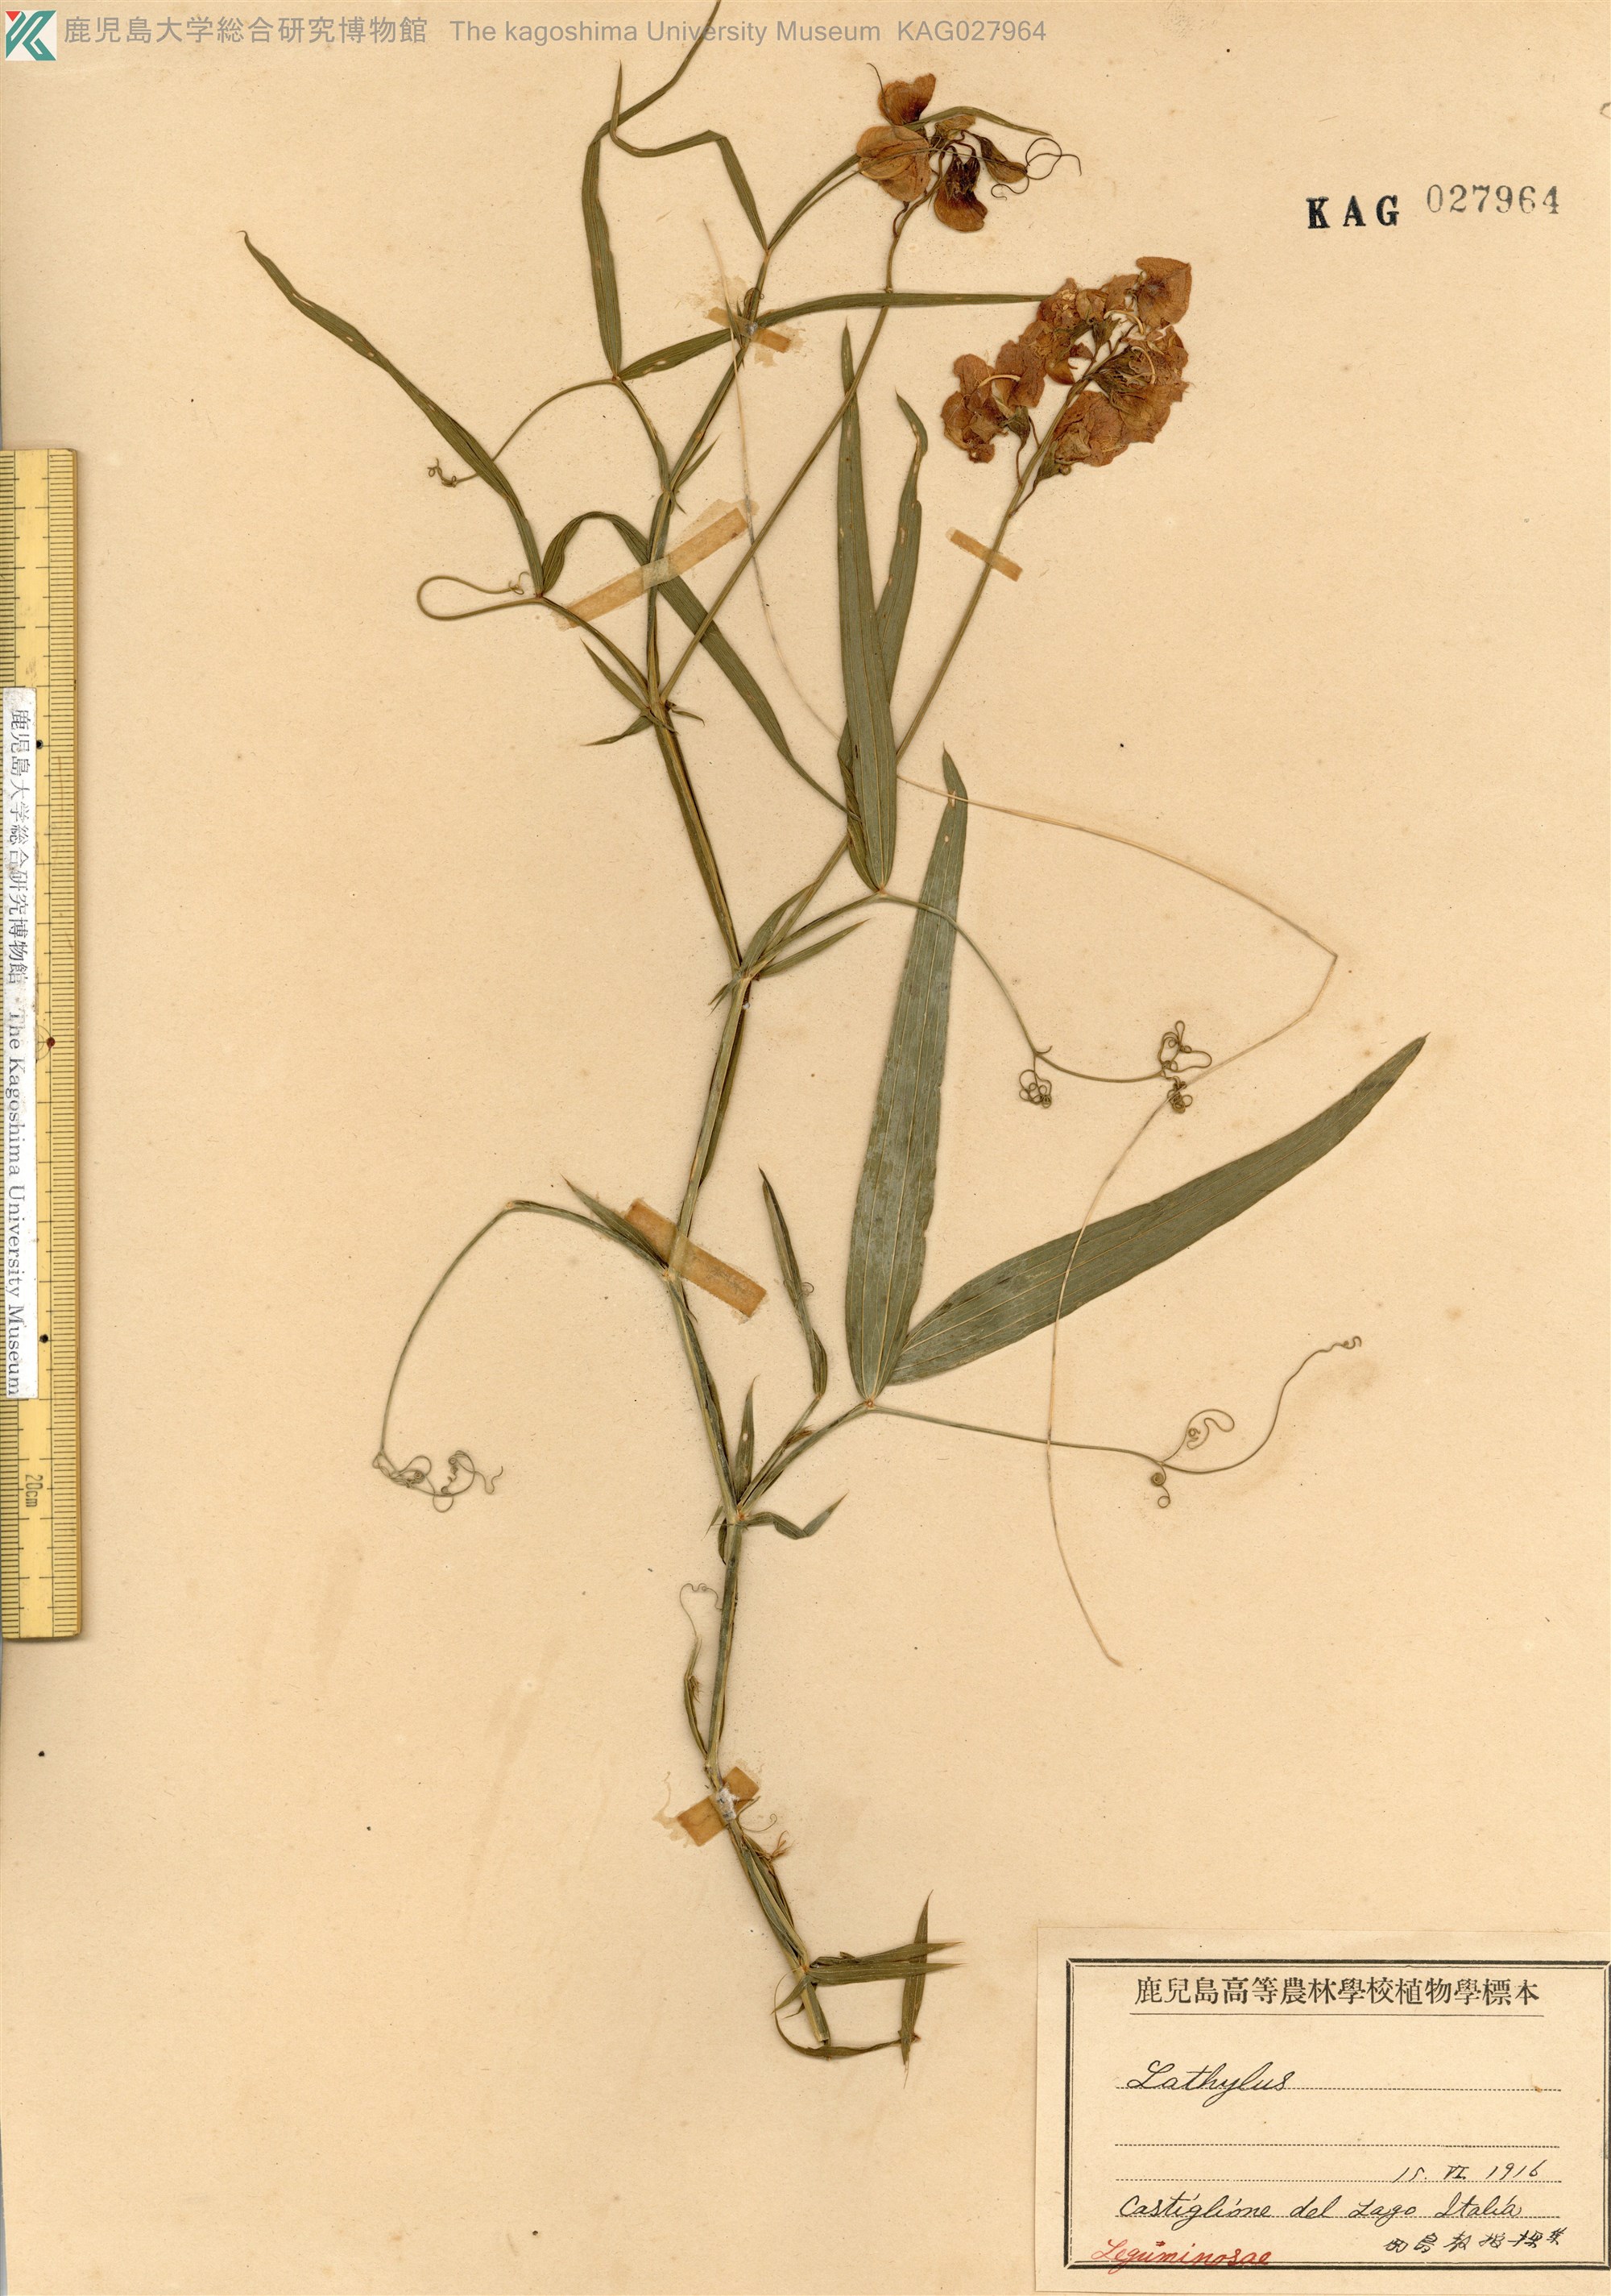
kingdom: Plantae
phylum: Tracheophyta
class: Magnoliopsida
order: Fabales
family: Fabaceae
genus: Lathyrus
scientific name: Lathyrus sylvestris
